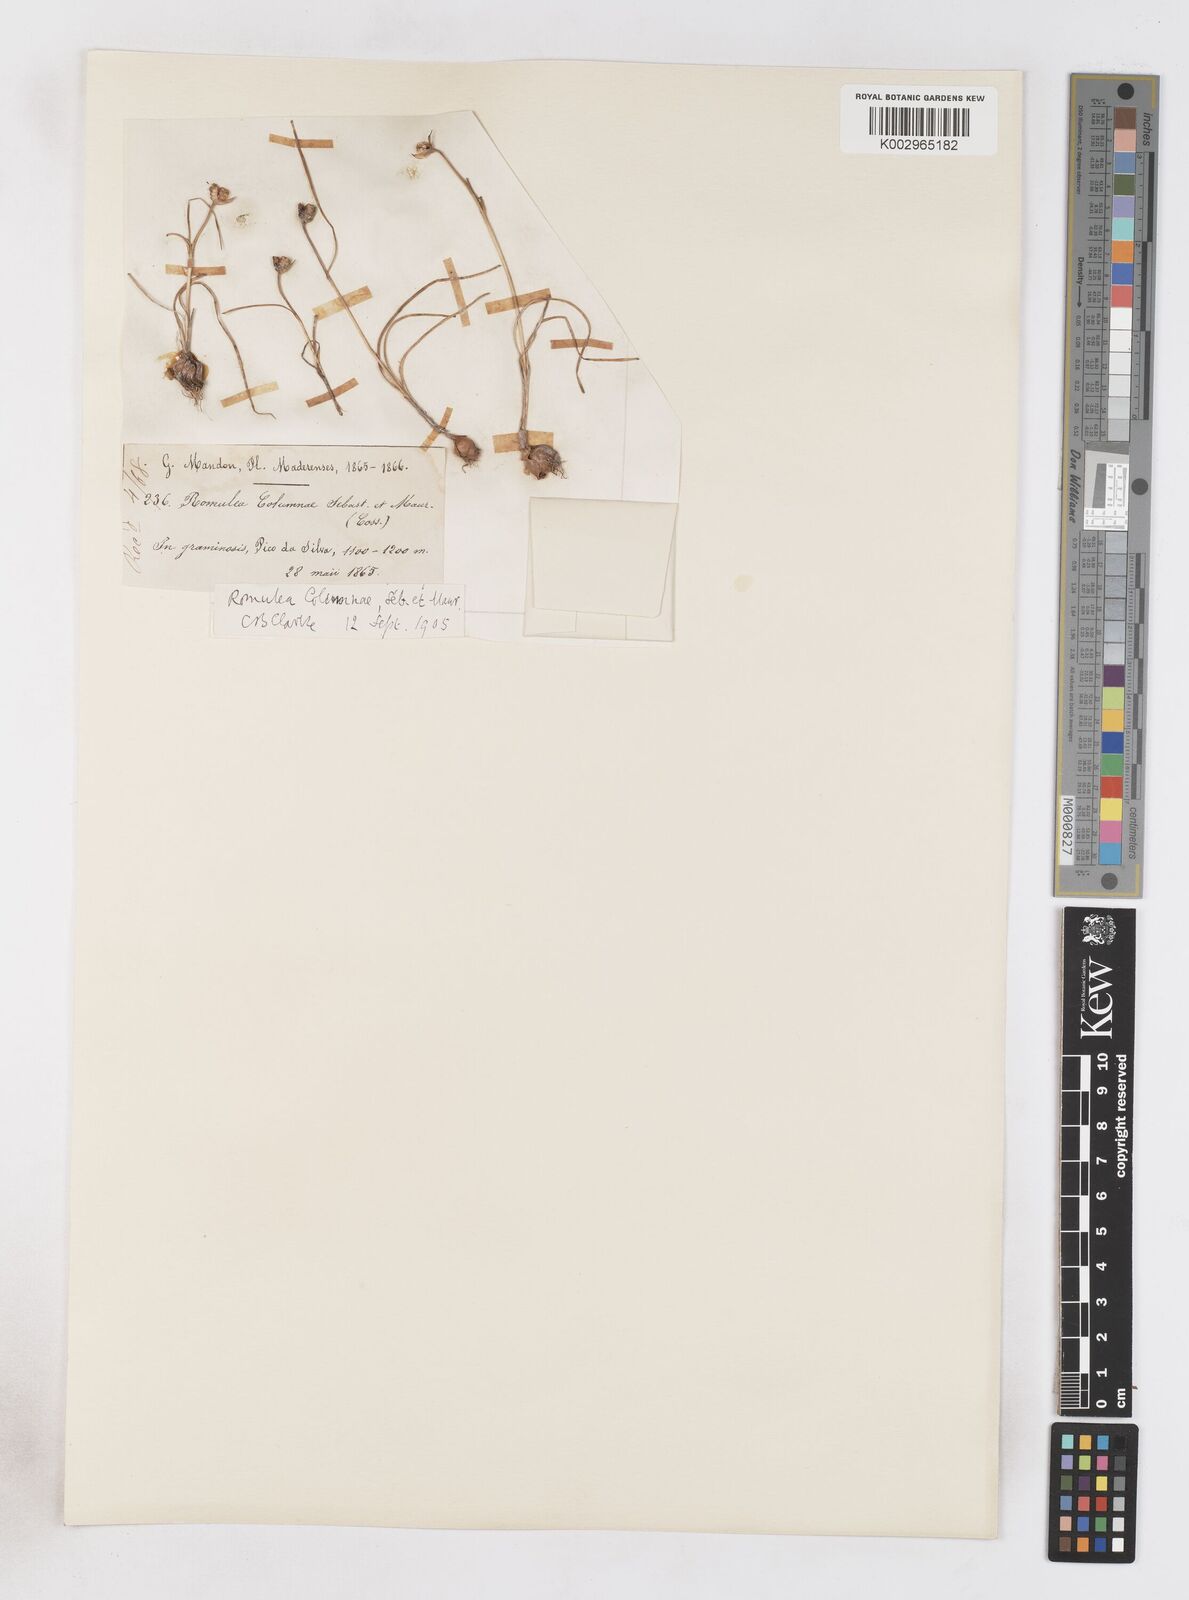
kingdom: Plantae
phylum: Tracheophyta
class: Liliopsida
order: Asparagales
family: Iridaceae
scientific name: Iridaceae
